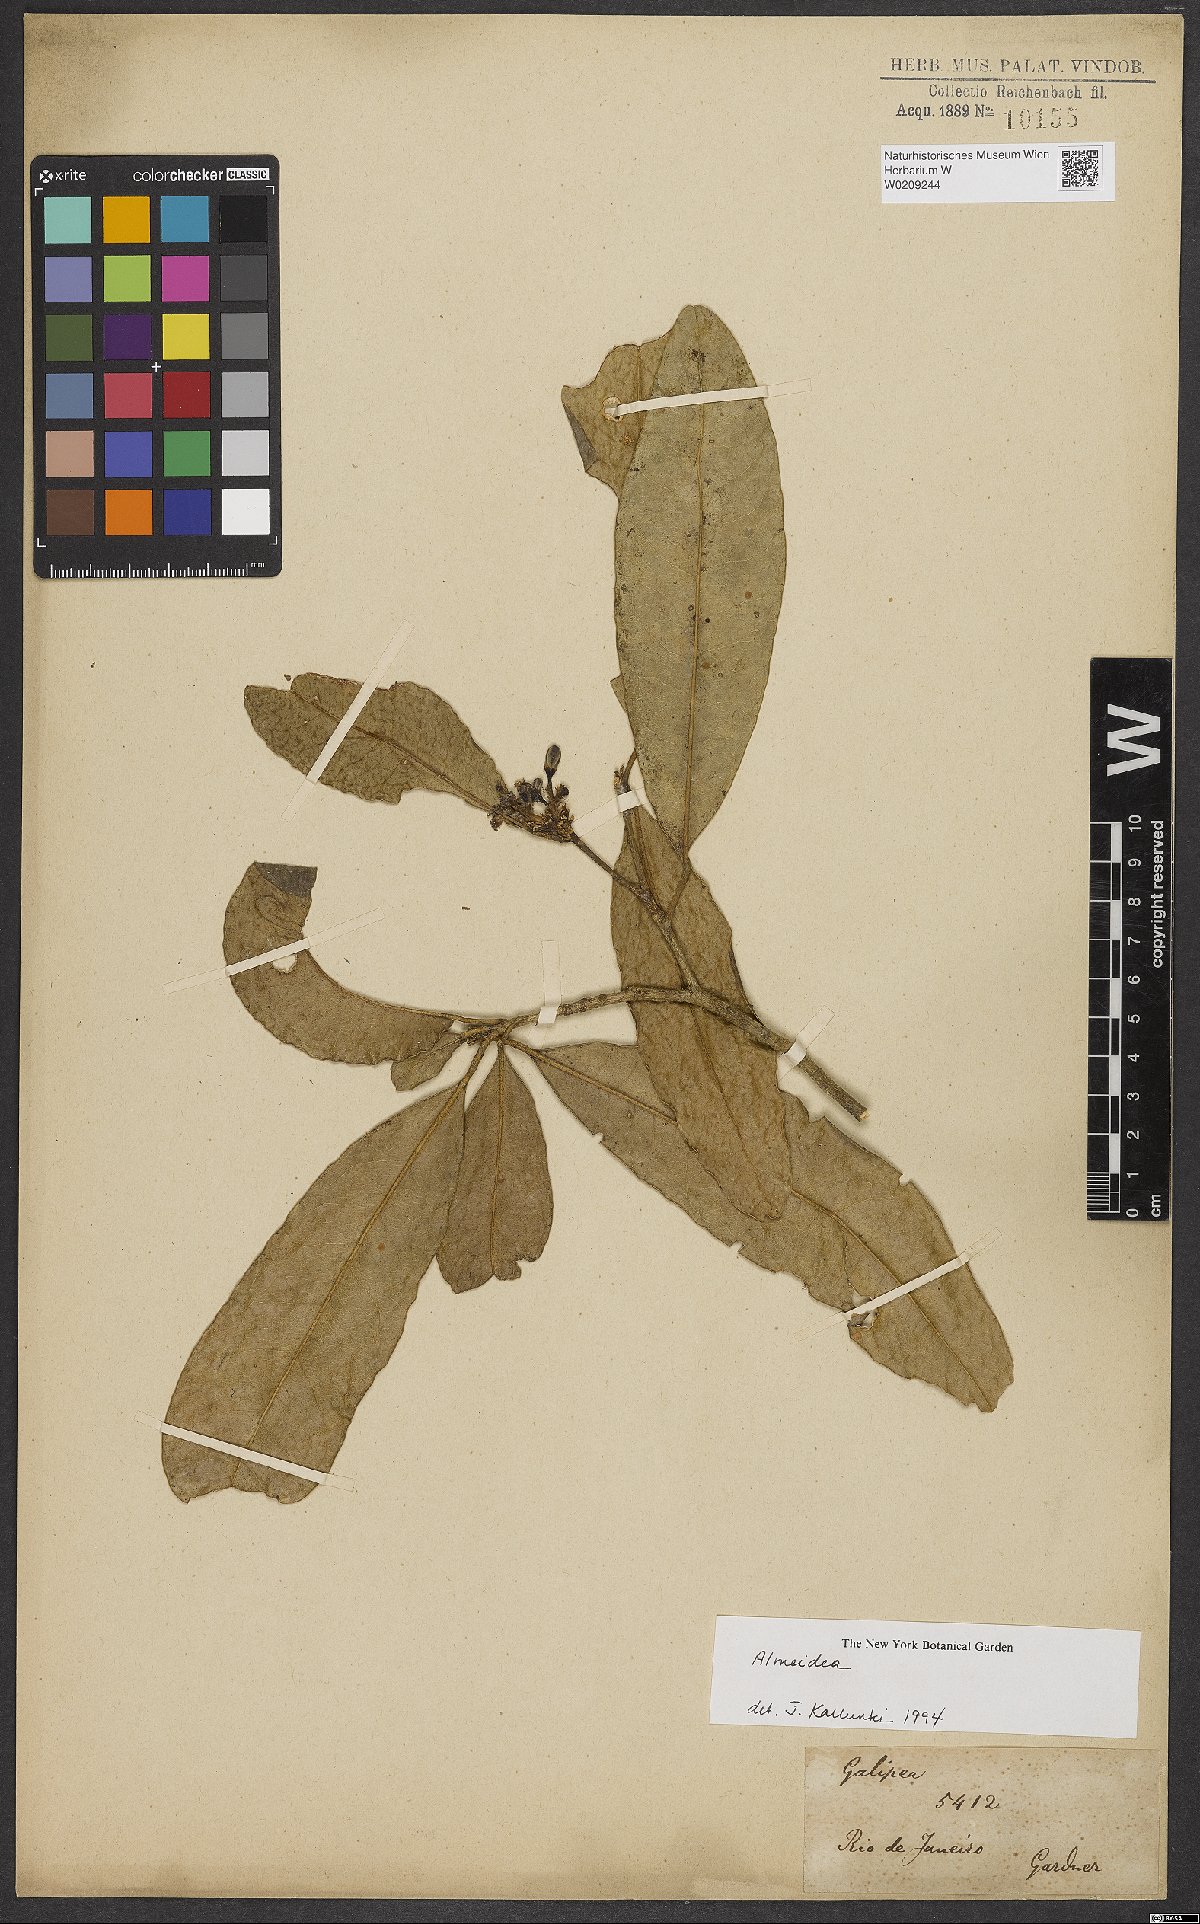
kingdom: Plantae
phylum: Tracheophyta
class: Magnoliopsida
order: Sapindales
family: Rutaceae
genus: Conchocarpus
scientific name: Conchocarpus
